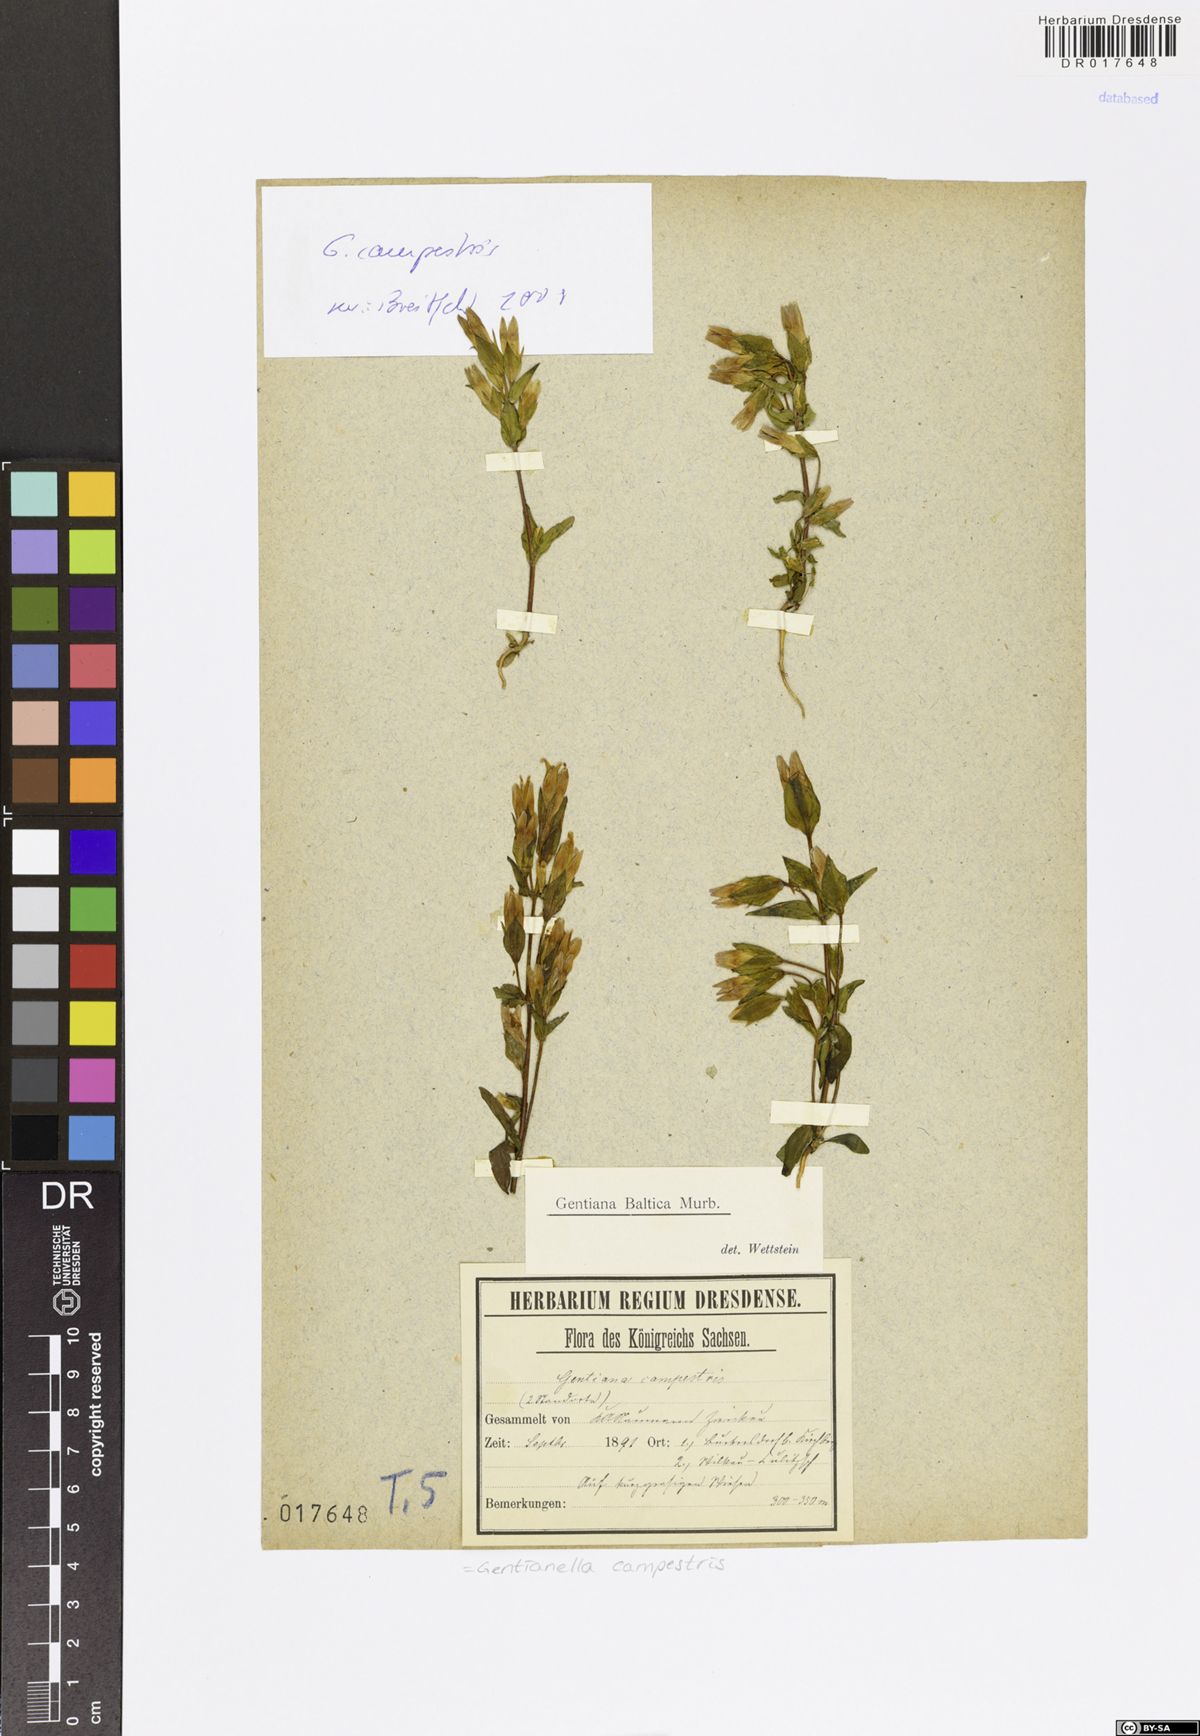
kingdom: Plantae
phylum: Tracheophyta
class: Magnoliopsida
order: Gentianales
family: Gentianaceae
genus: Gentianella
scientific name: Gentianella campestris
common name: Field gentian
